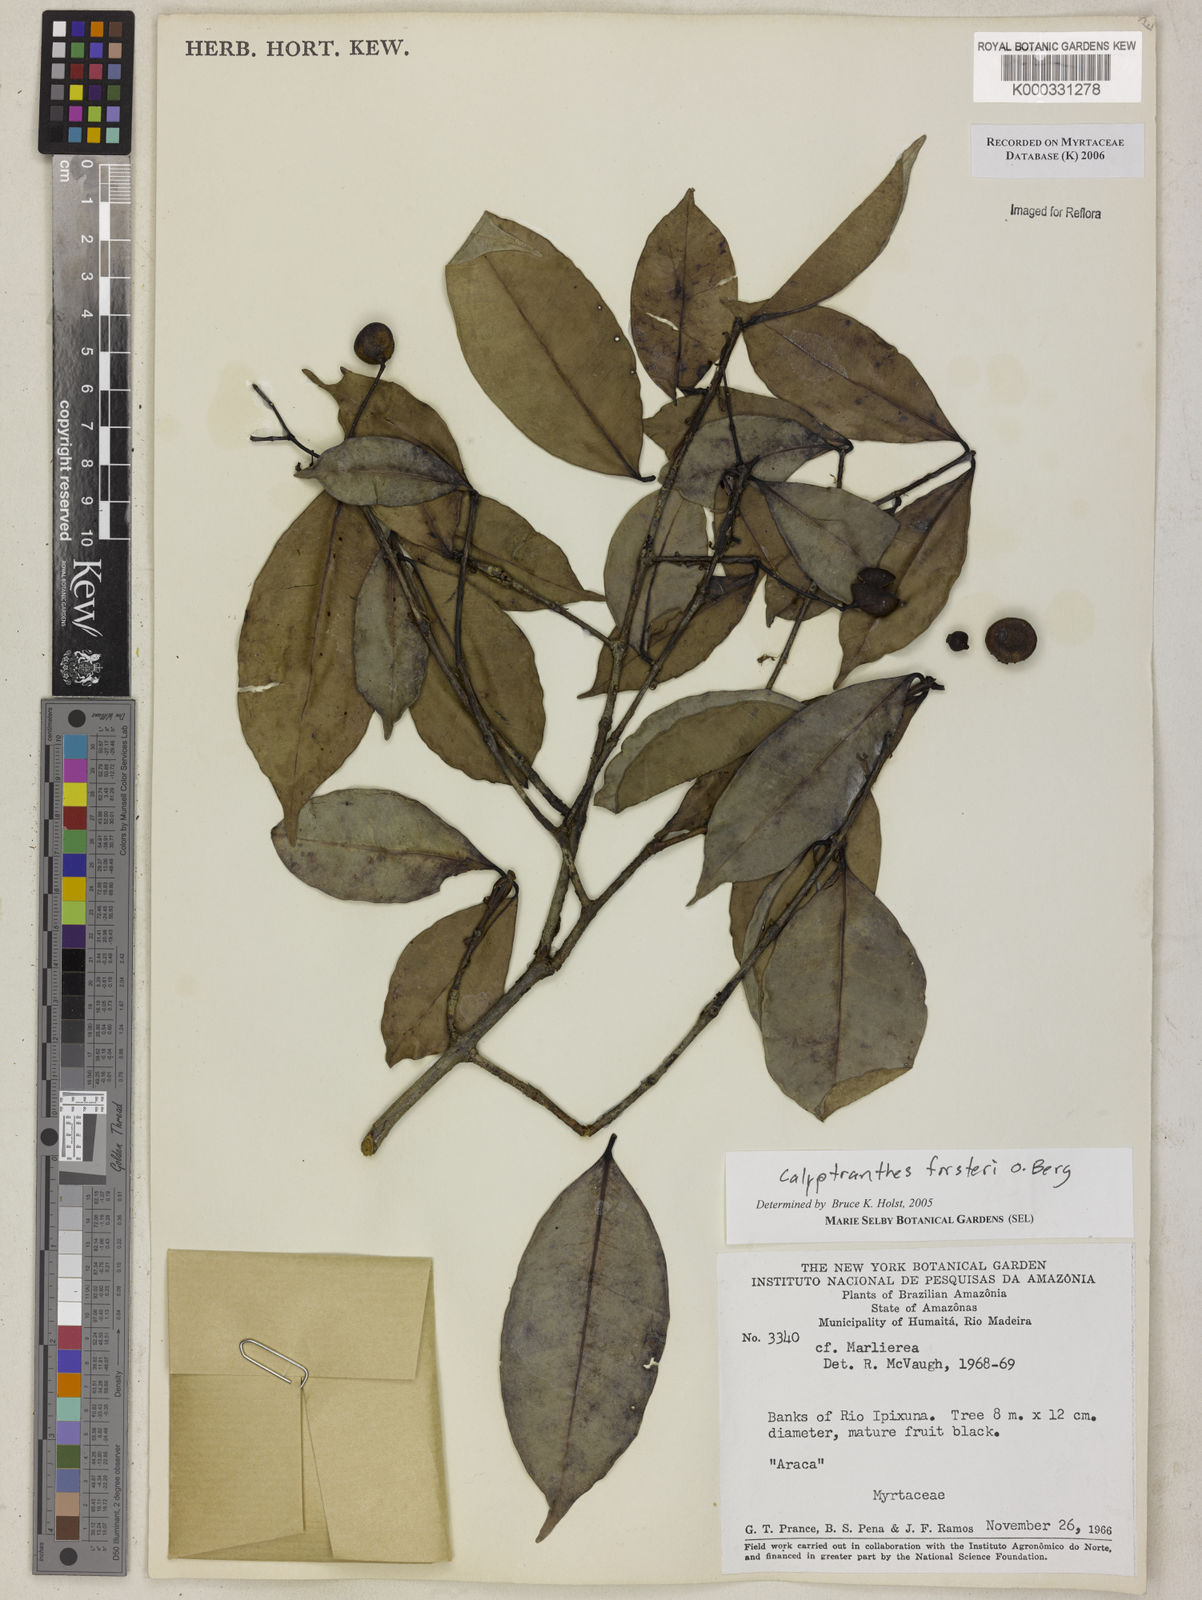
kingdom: Plantae
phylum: Tracheophyta
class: Magnoliopsida
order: Myrtales
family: Myrtaceae
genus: Myrcia
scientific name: Myrcia forsteri
